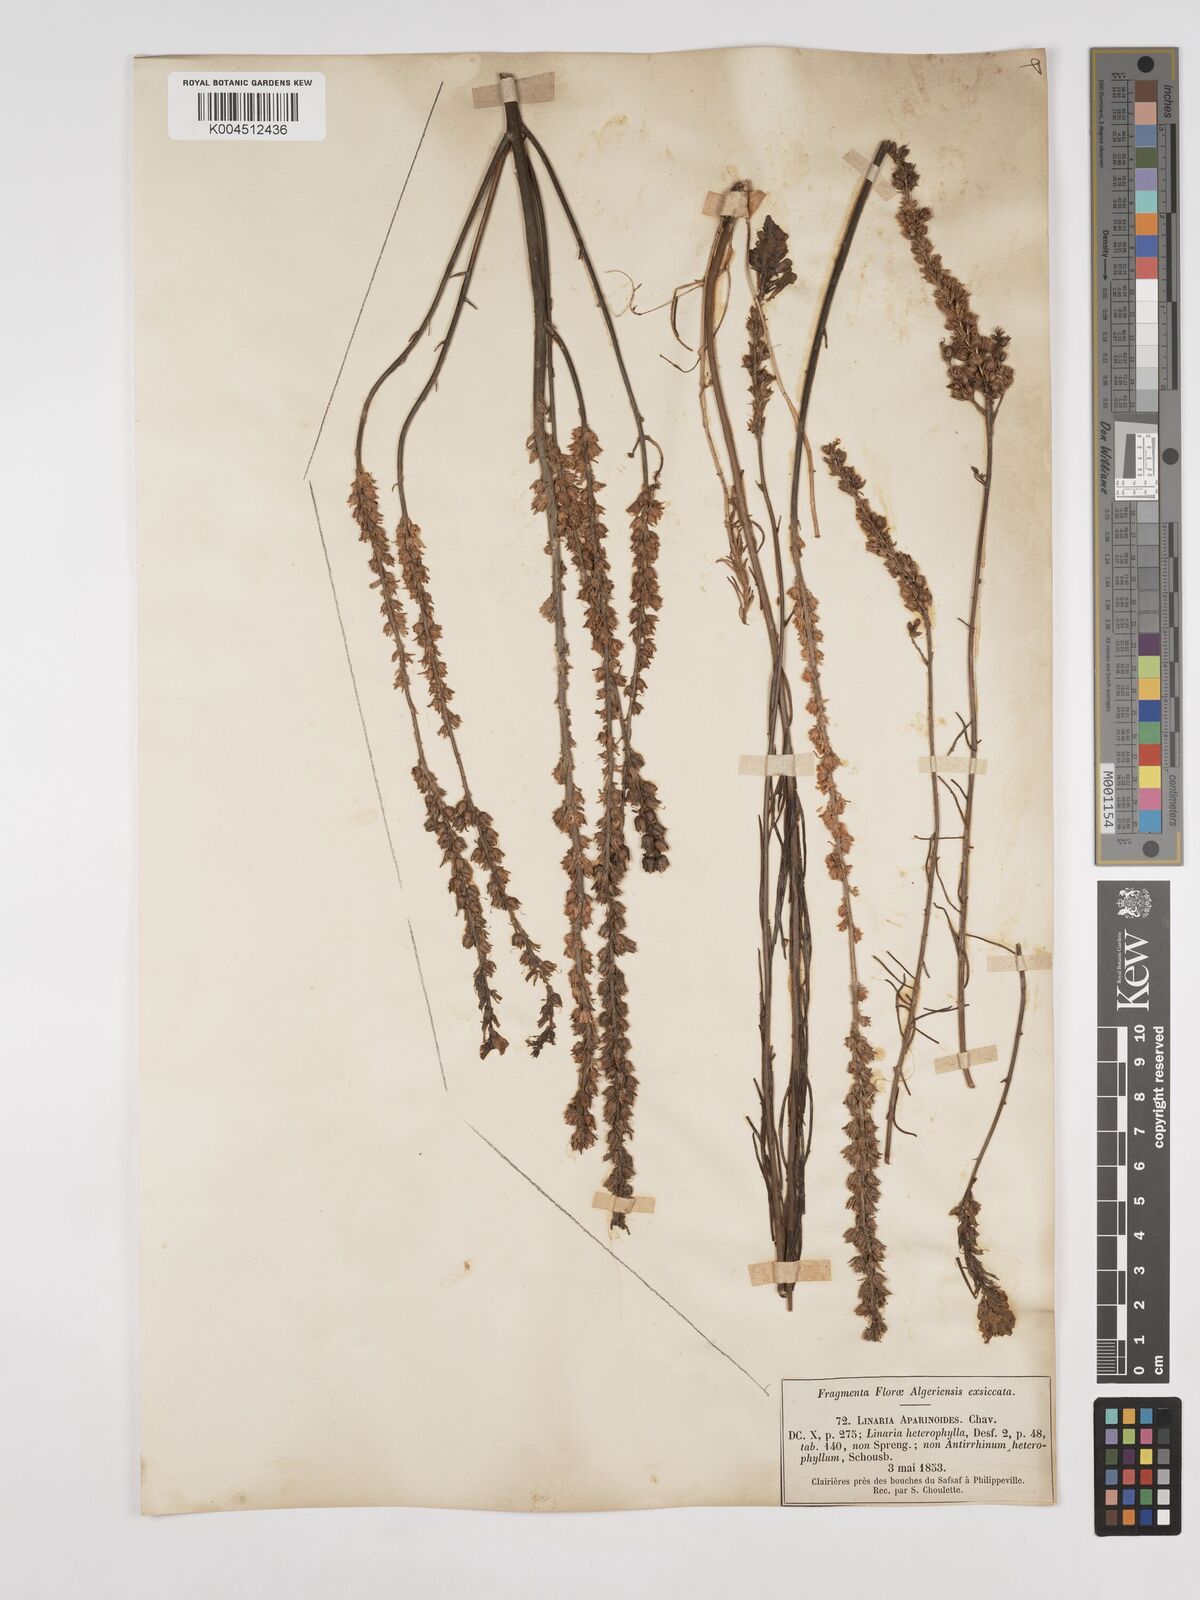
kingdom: Plantae
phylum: Tracheophyta
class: Magnoliopsida
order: Lamiales
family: Plantaginaceae
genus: Linaria
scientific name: Linaria multicaulis
